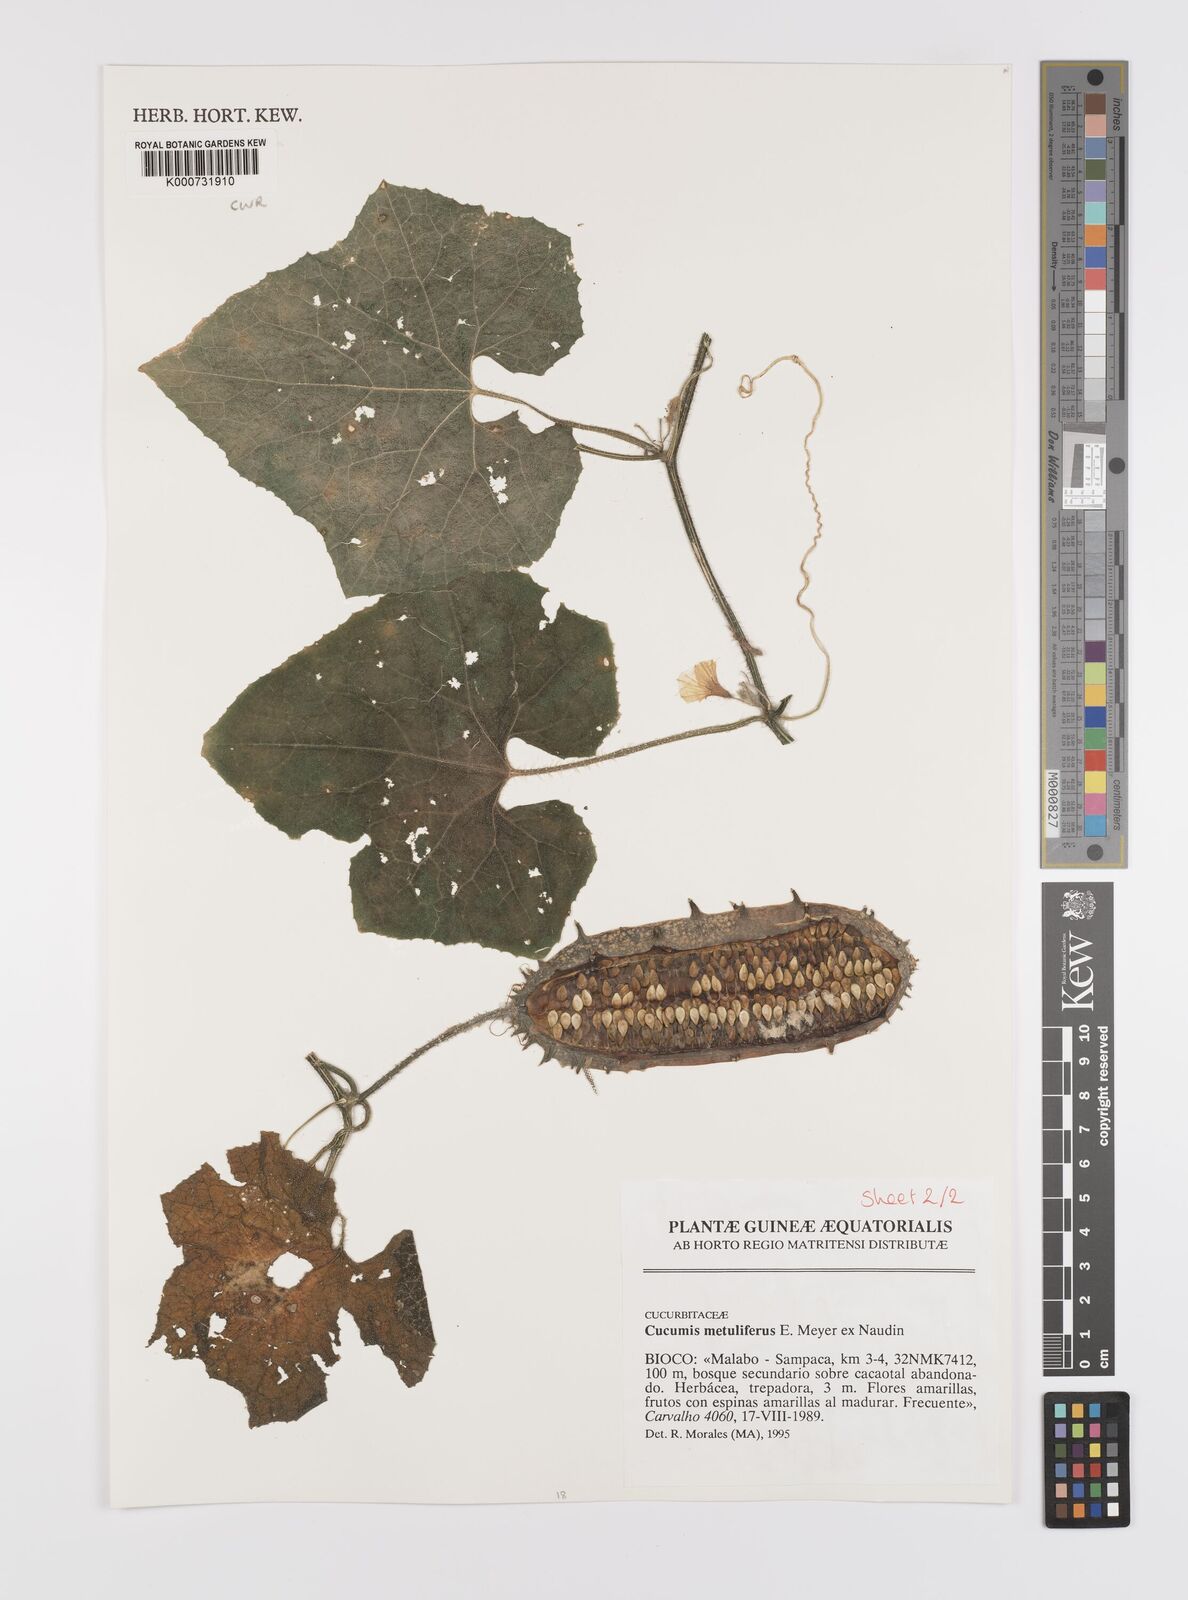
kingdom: Plantae
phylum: Tracheophyta
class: Magnoliopsida
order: Cucurbitales
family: Cucurbitaceae
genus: Cucumis
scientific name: Cucumis
